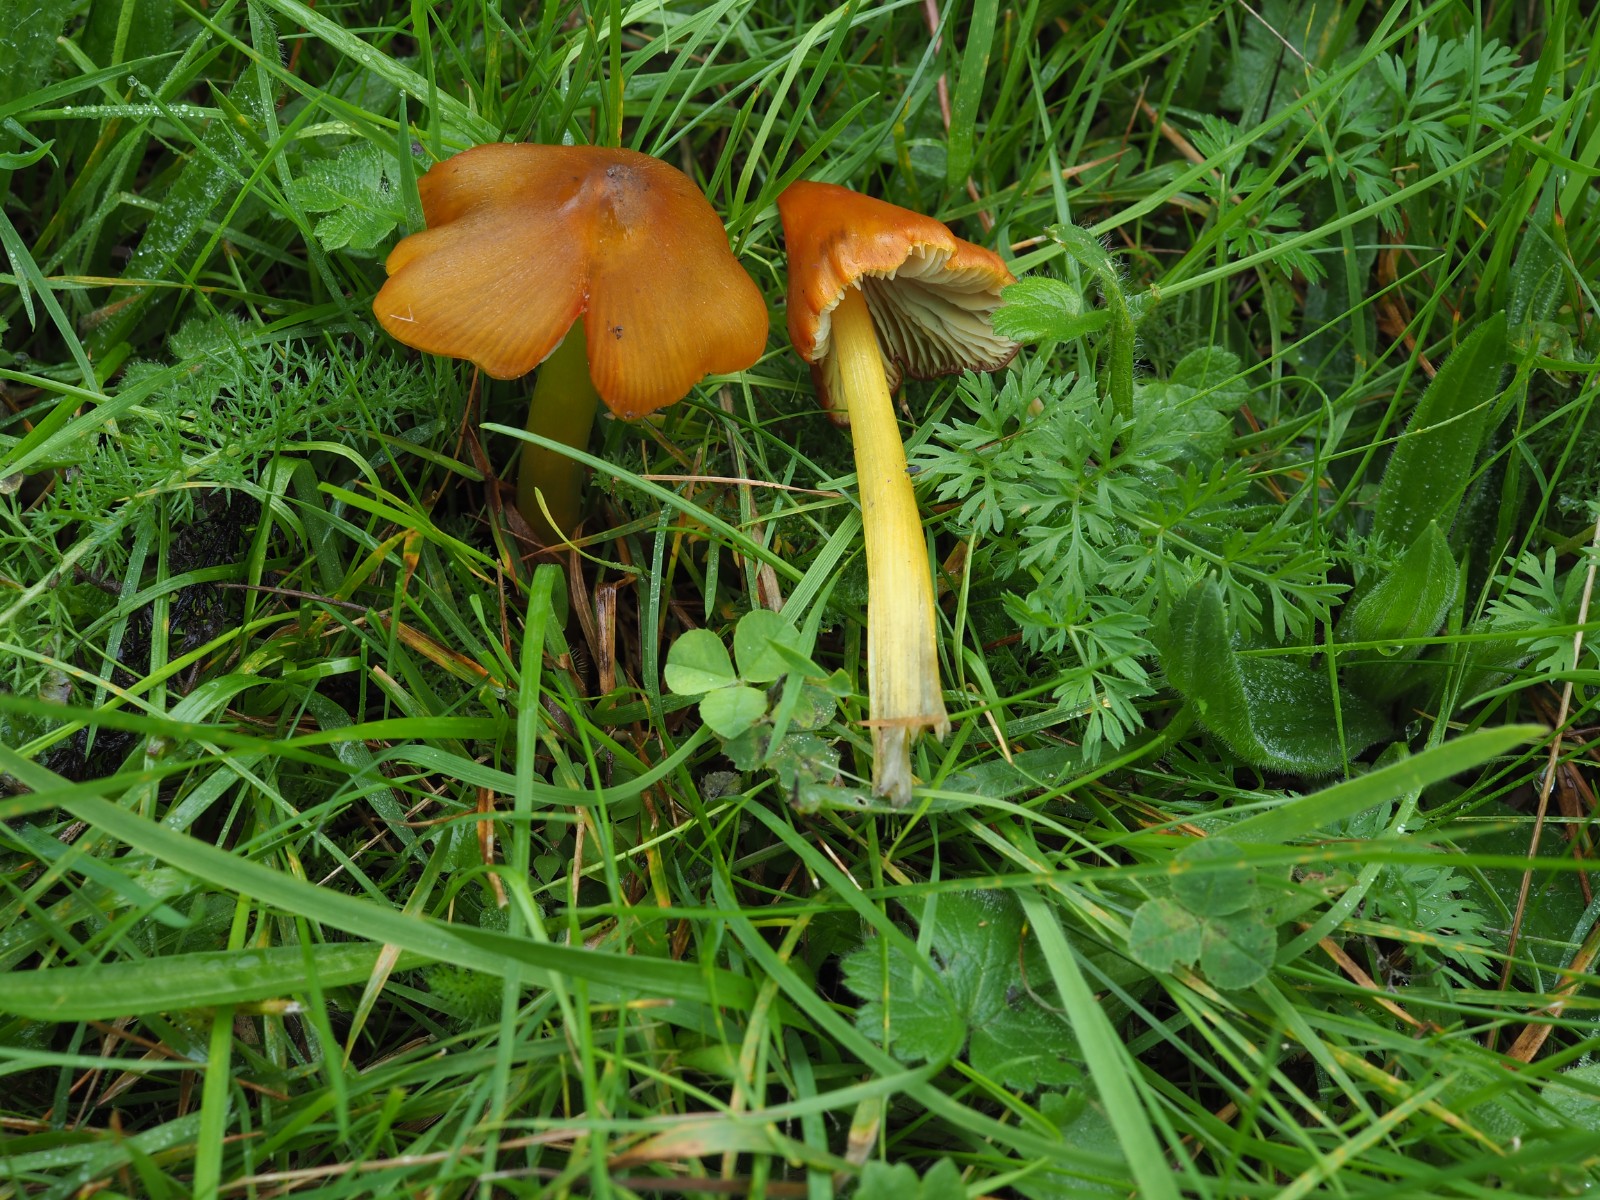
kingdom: Fungi
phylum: Basidiomycota
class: Agaricomycetes
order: Agaricales
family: Hygrophoraceae
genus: Hygrocybe
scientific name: Hygrocybe conica
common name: kegle-vokshat
